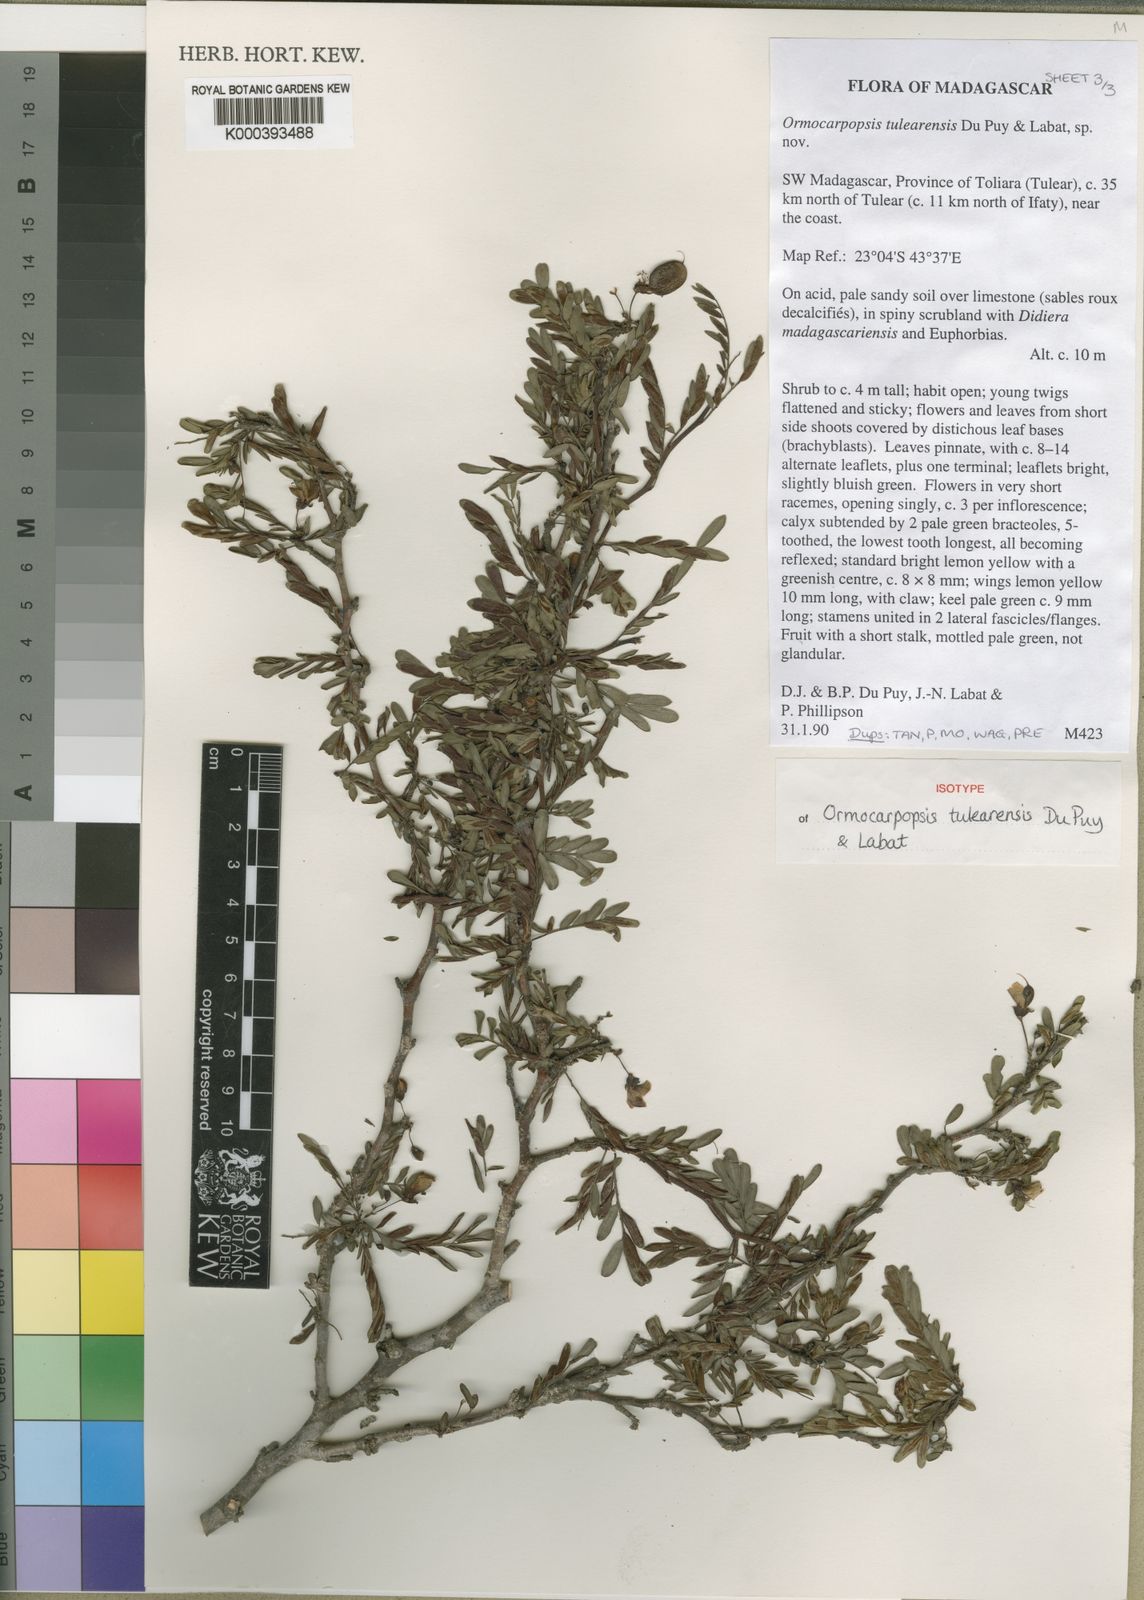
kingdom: Plantae
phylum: Tracheophyta
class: Magnoliopsida
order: Fabales
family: Fabaceae
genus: Ormocarpopsis
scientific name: Ormocarpopsis tulearensis
